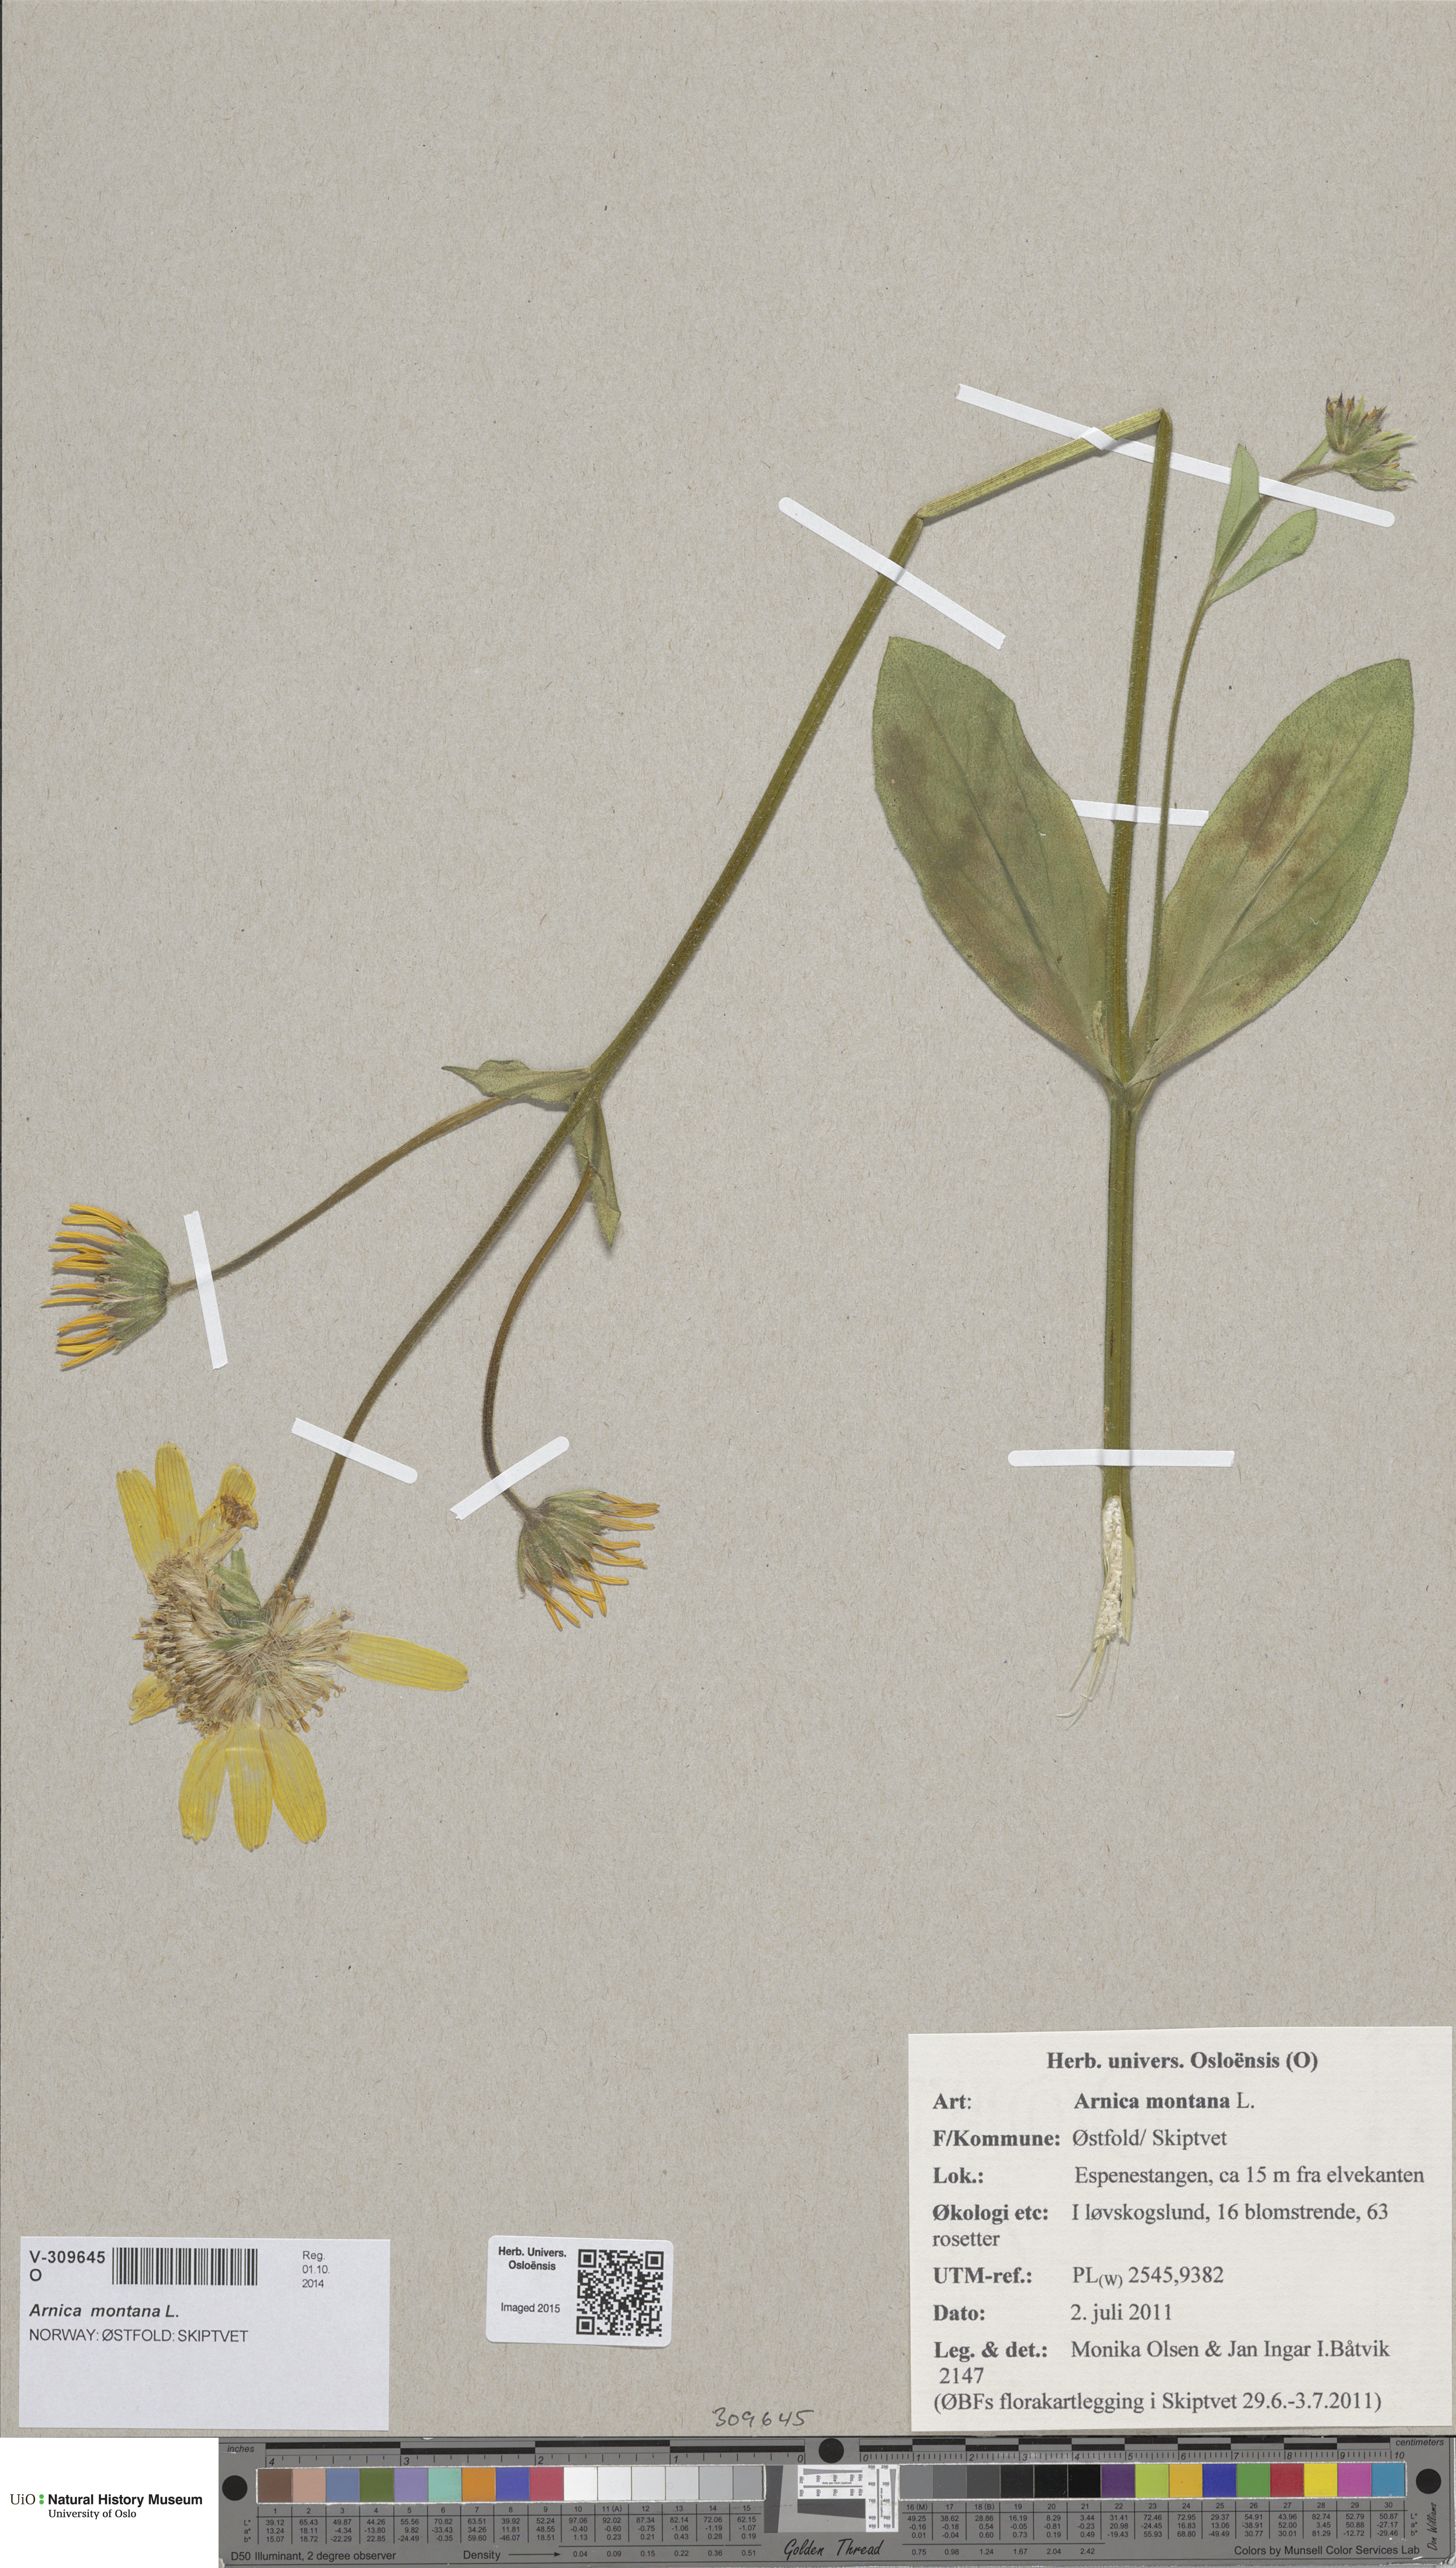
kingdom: Plantae
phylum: Tracheophyta
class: Magnoliopsida
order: Asterales
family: Asteraceae
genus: Arnica
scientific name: Arnica montana
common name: Leopard's bane
